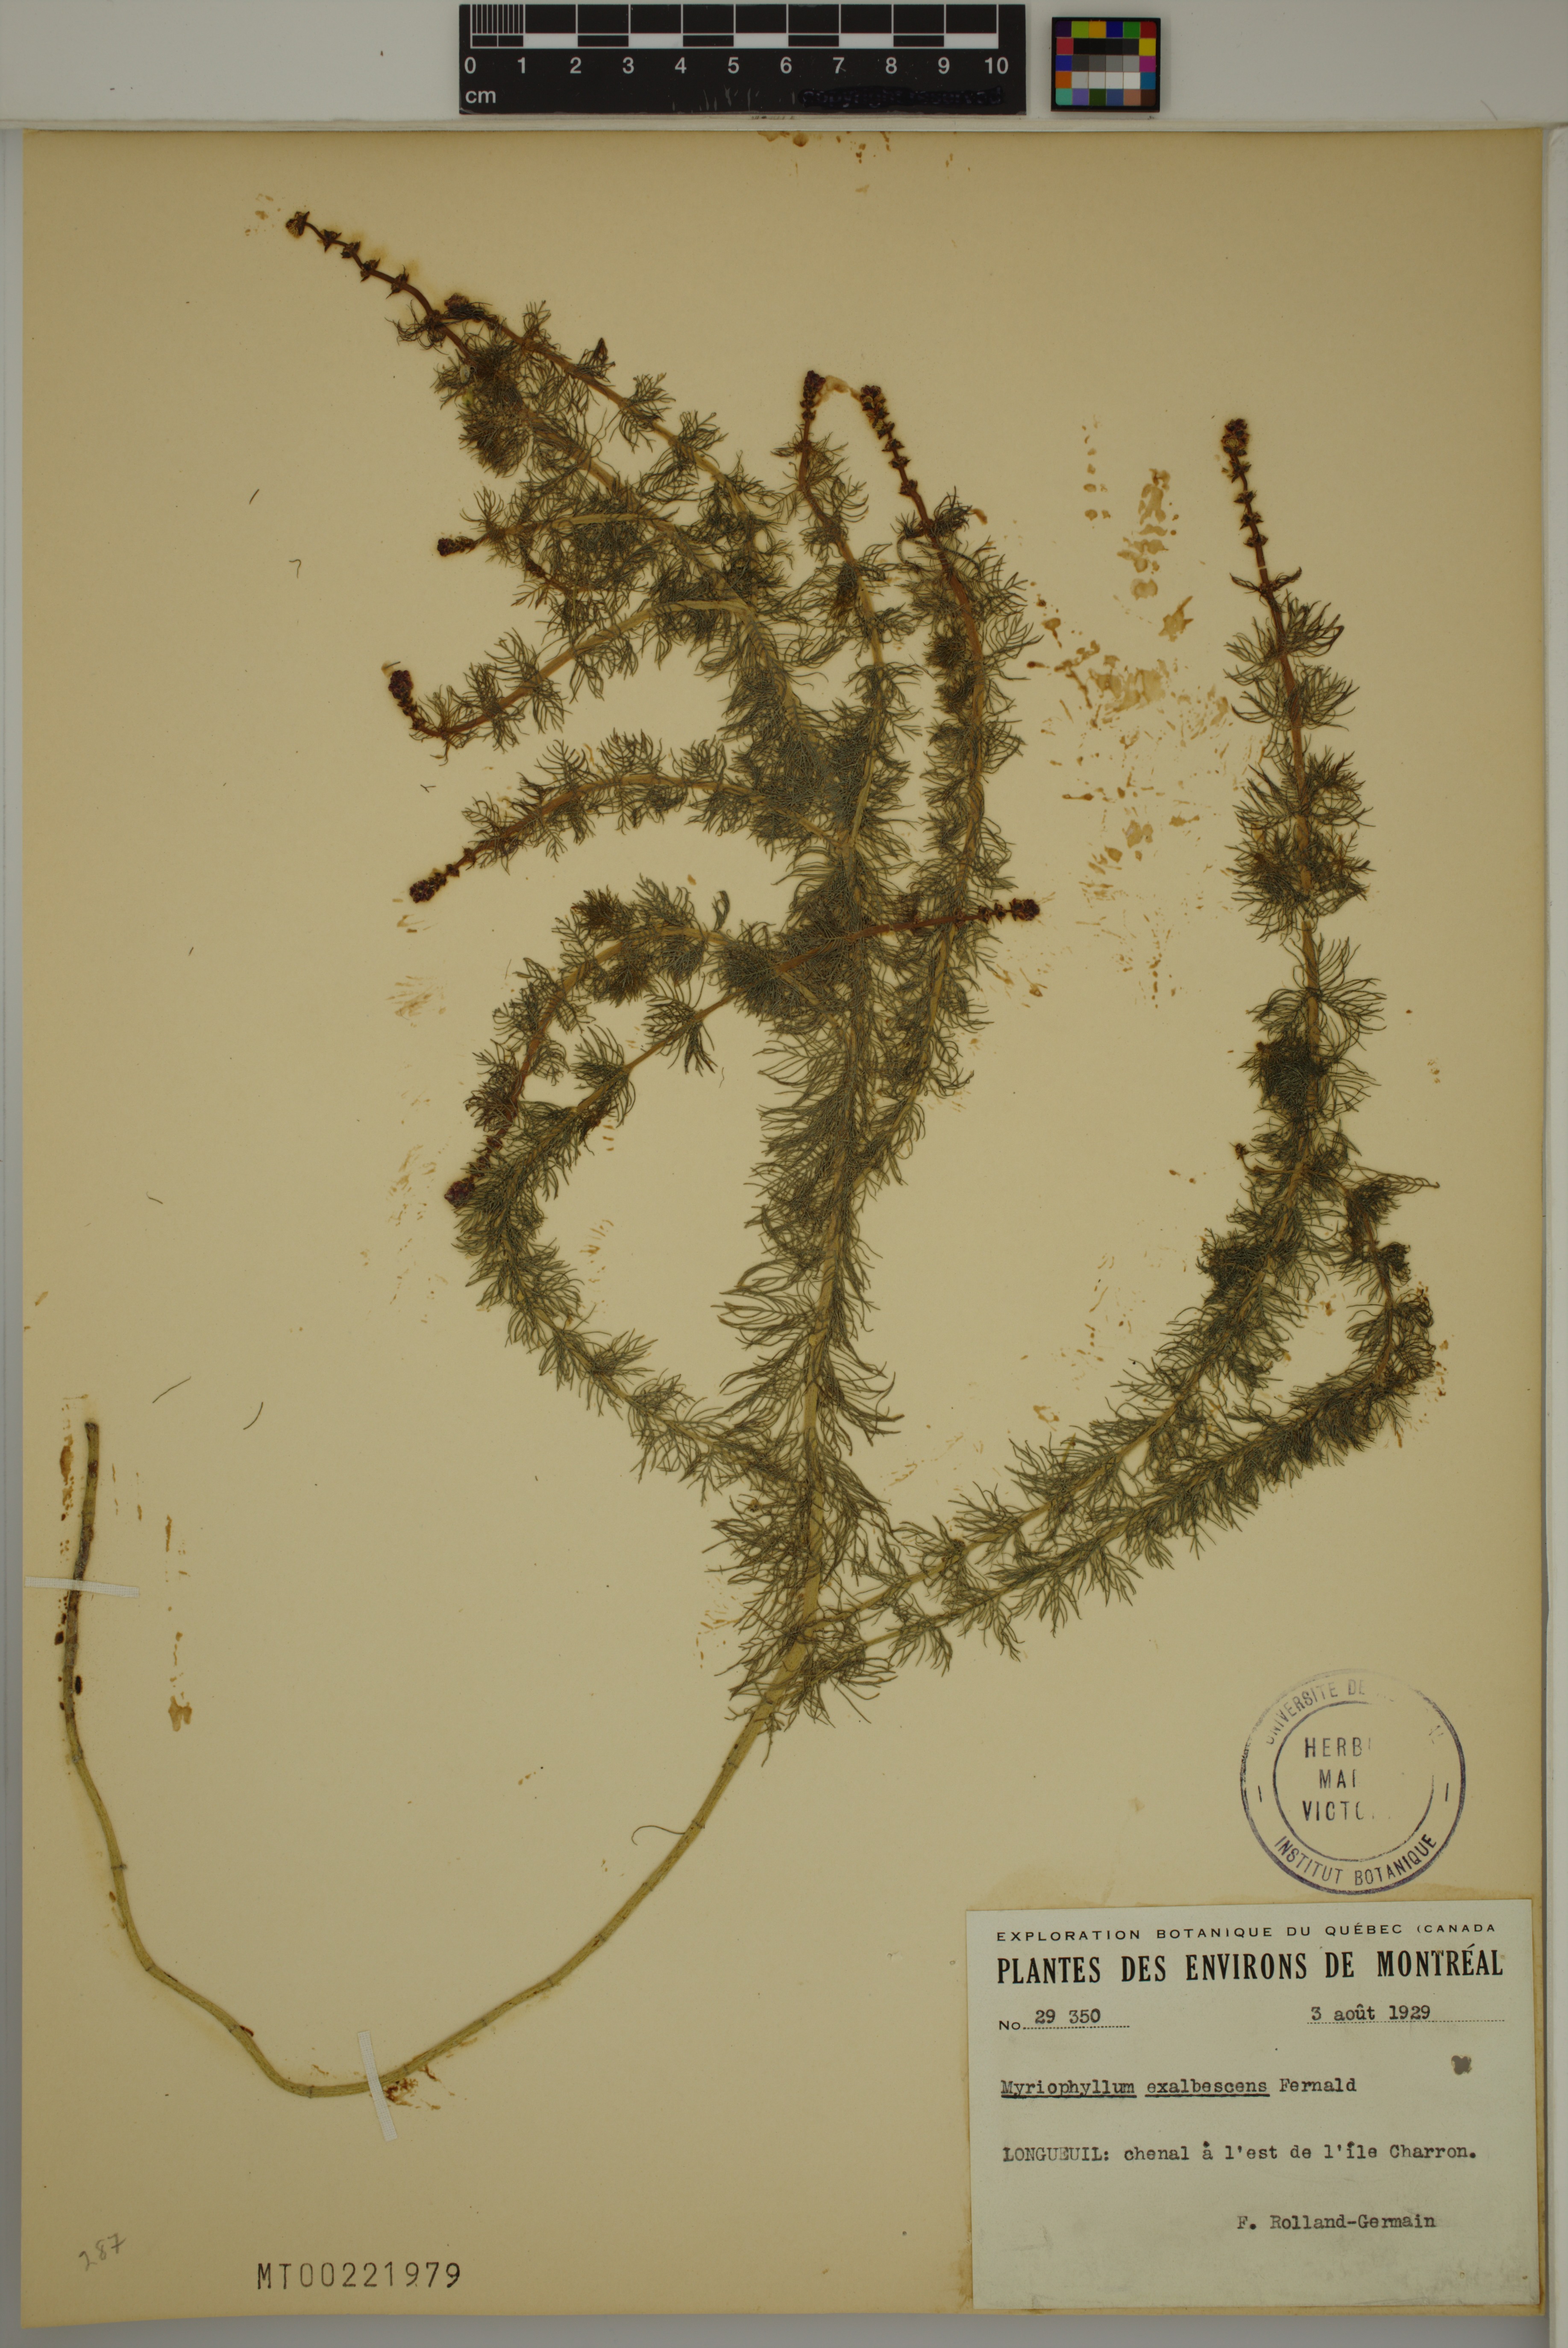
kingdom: Plantae
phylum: Tracheophyta
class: Magnoliopsida
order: Saxifragales
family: Haloragaceae
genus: Myriophyllum
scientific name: Myriophyllum sibiricum
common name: Siberian water-milfoil
